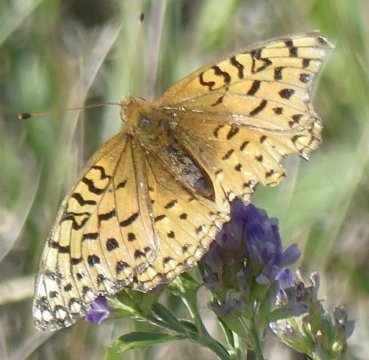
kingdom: Animalia
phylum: Arthropoda
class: Insecta
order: Lepidoptera
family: Nymphalidae
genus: Speyeria
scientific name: Speyeria mormonia
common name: Mormon Fritillary
